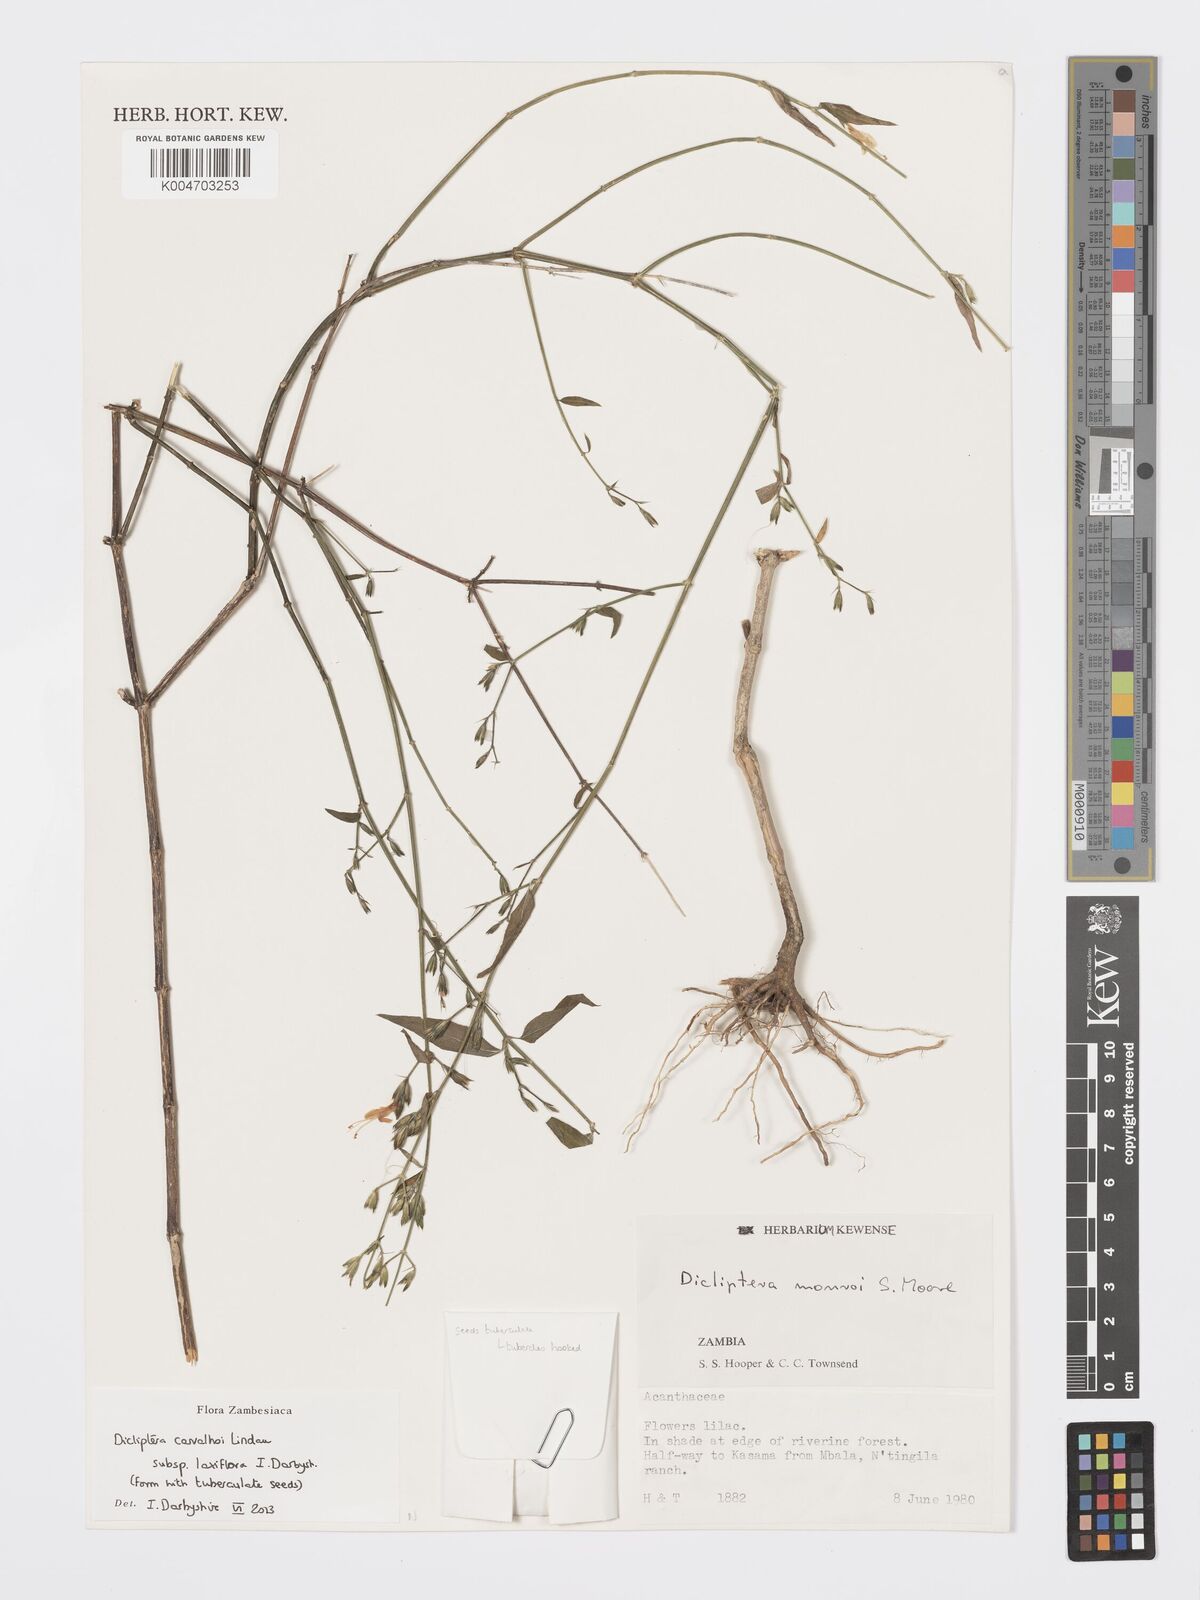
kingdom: Plantae
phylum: Tracheophyta
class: Magnoliopsida
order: Lamiales
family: Acanthaceae
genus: Dicliptera
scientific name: Dicliptera carvalhoi
